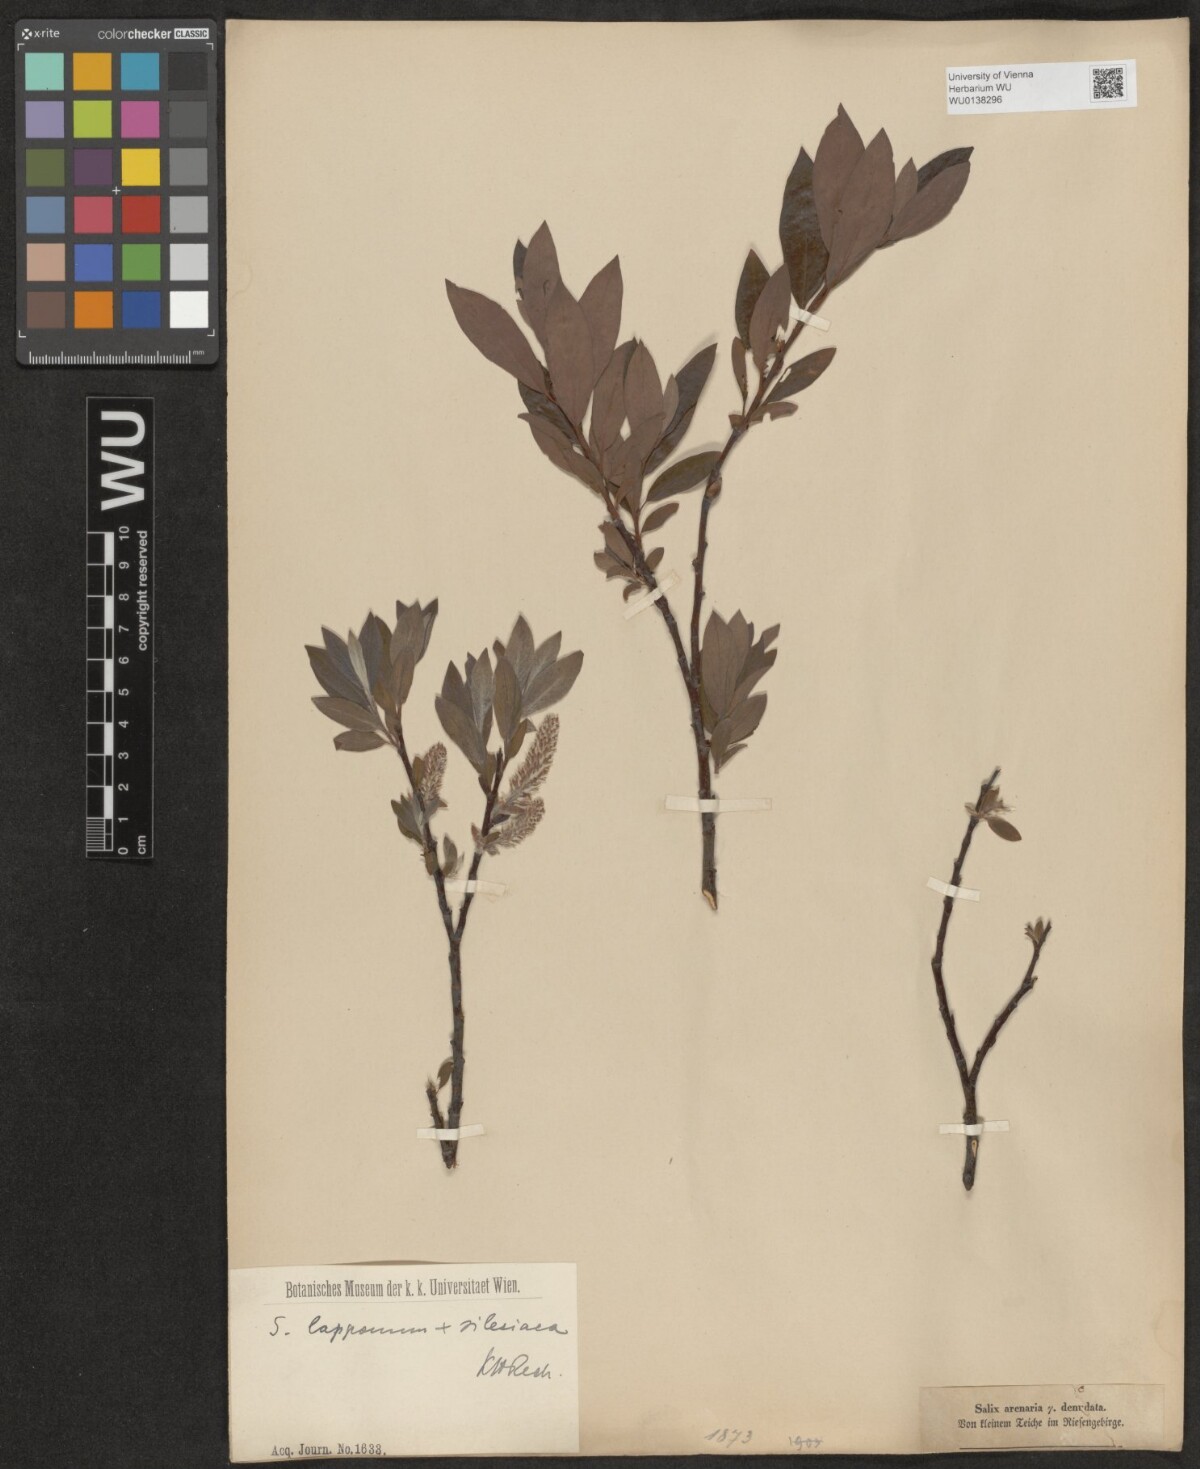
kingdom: Plantae
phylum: Tracheophyta
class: Magnoliopsida
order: Malpighiales
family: Salicaceae
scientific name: Salicaceae
